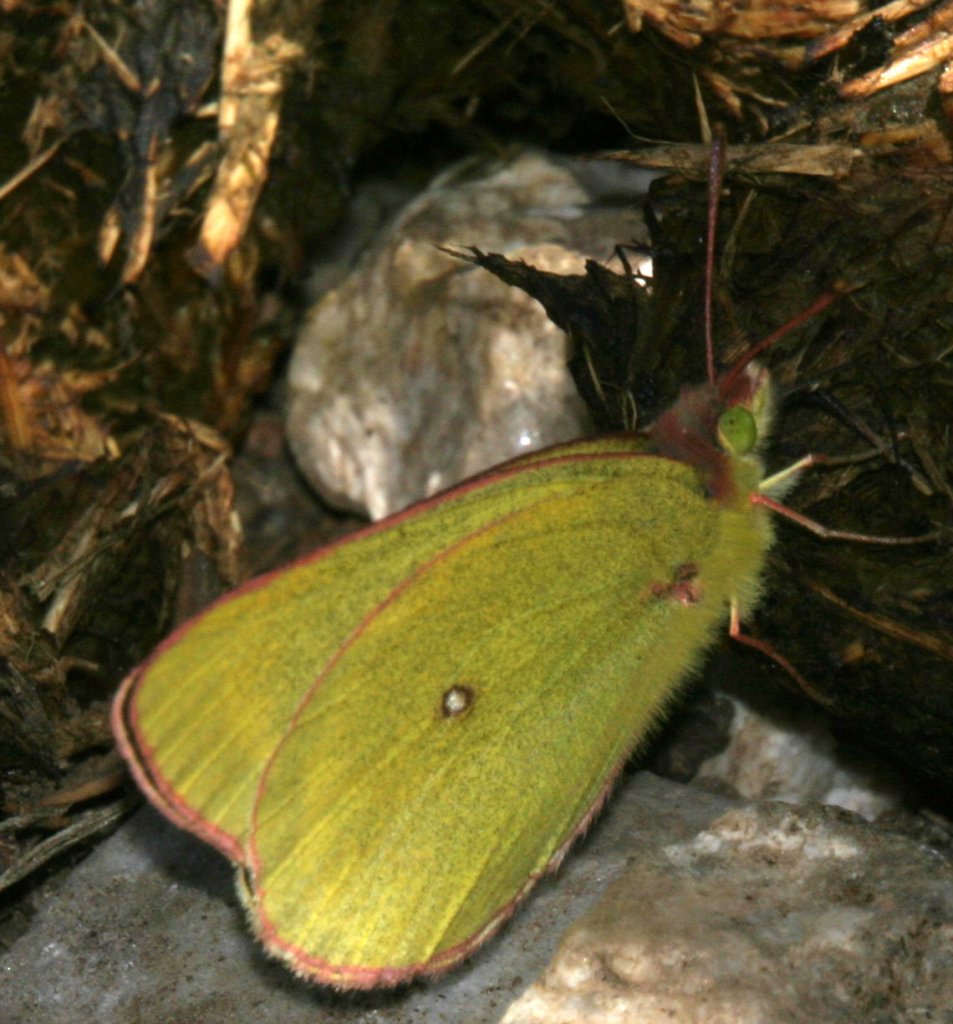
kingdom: Animalia
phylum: Arthropoda
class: Insecta
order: Lepidoptera
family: Pieridae
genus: Colias
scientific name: Colias pelidne
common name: Pelidne Sulphur
